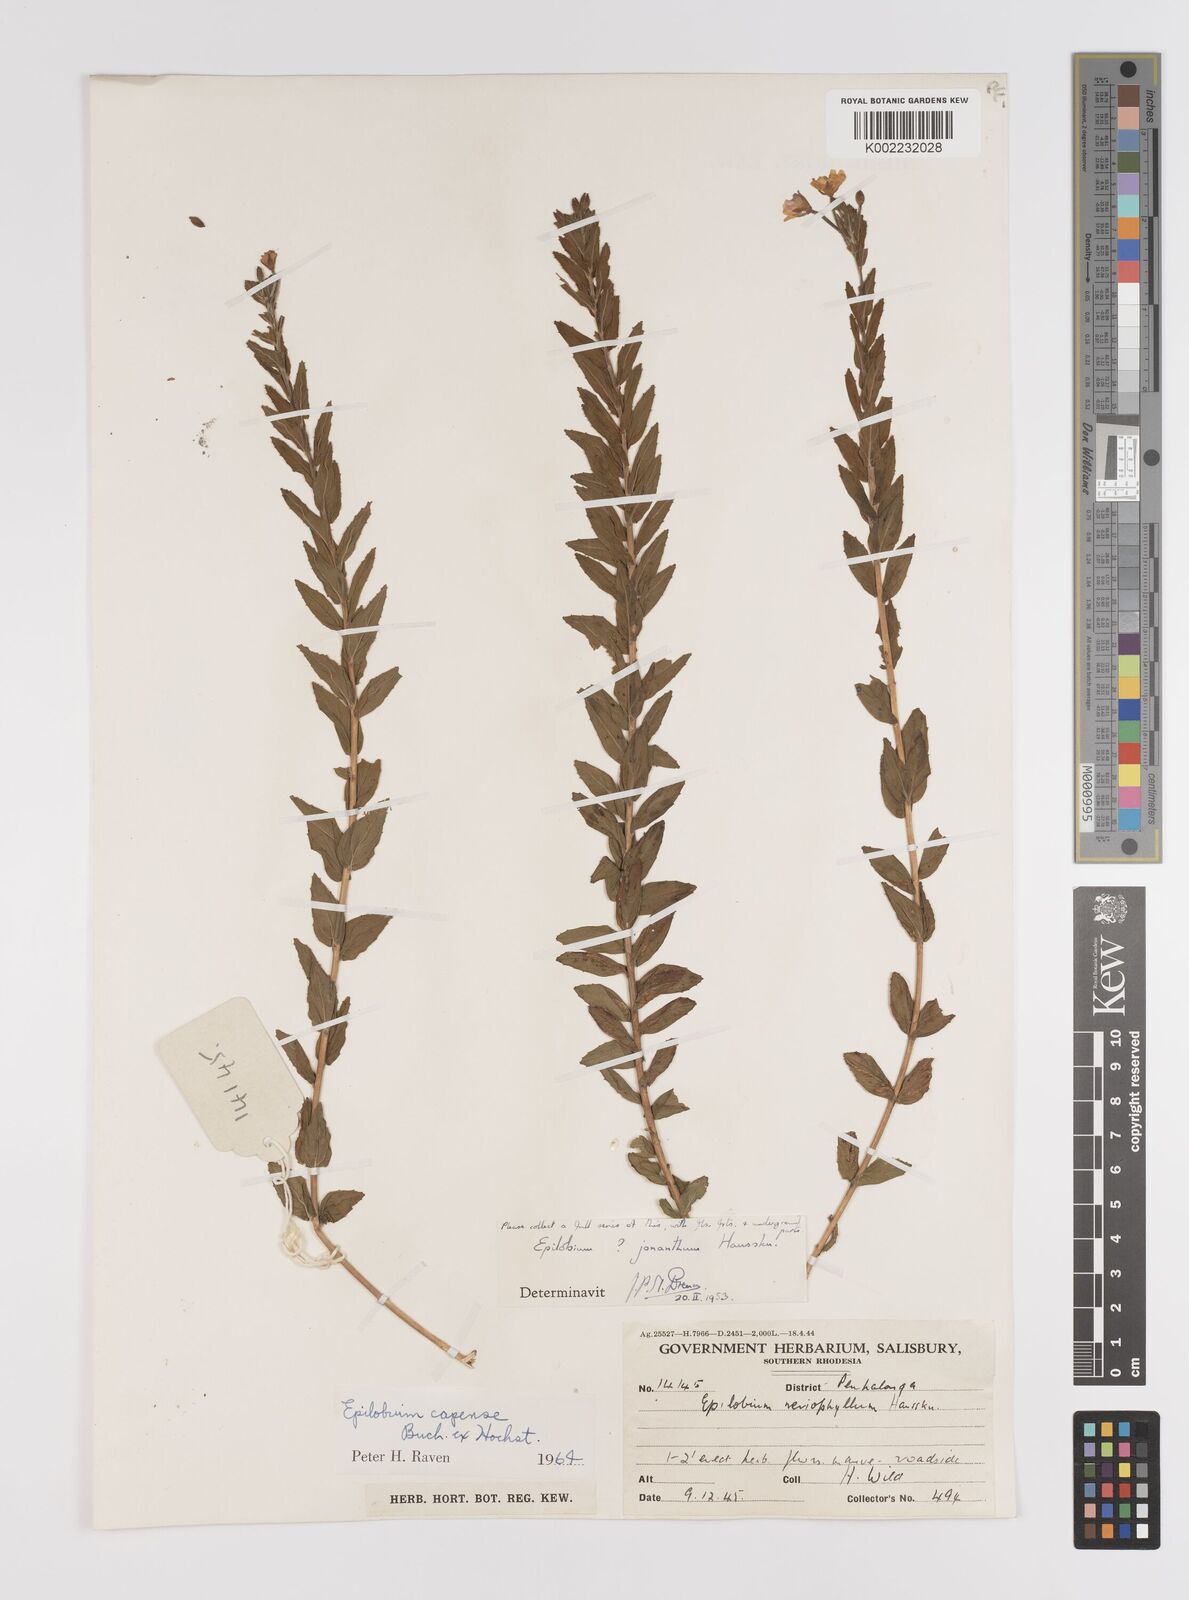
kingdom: Plantae
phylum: Tracheophyta
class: Magnoliopsida
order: Myrtales
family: Onagraceae
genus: Epilobium
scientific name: Epilobium capense
